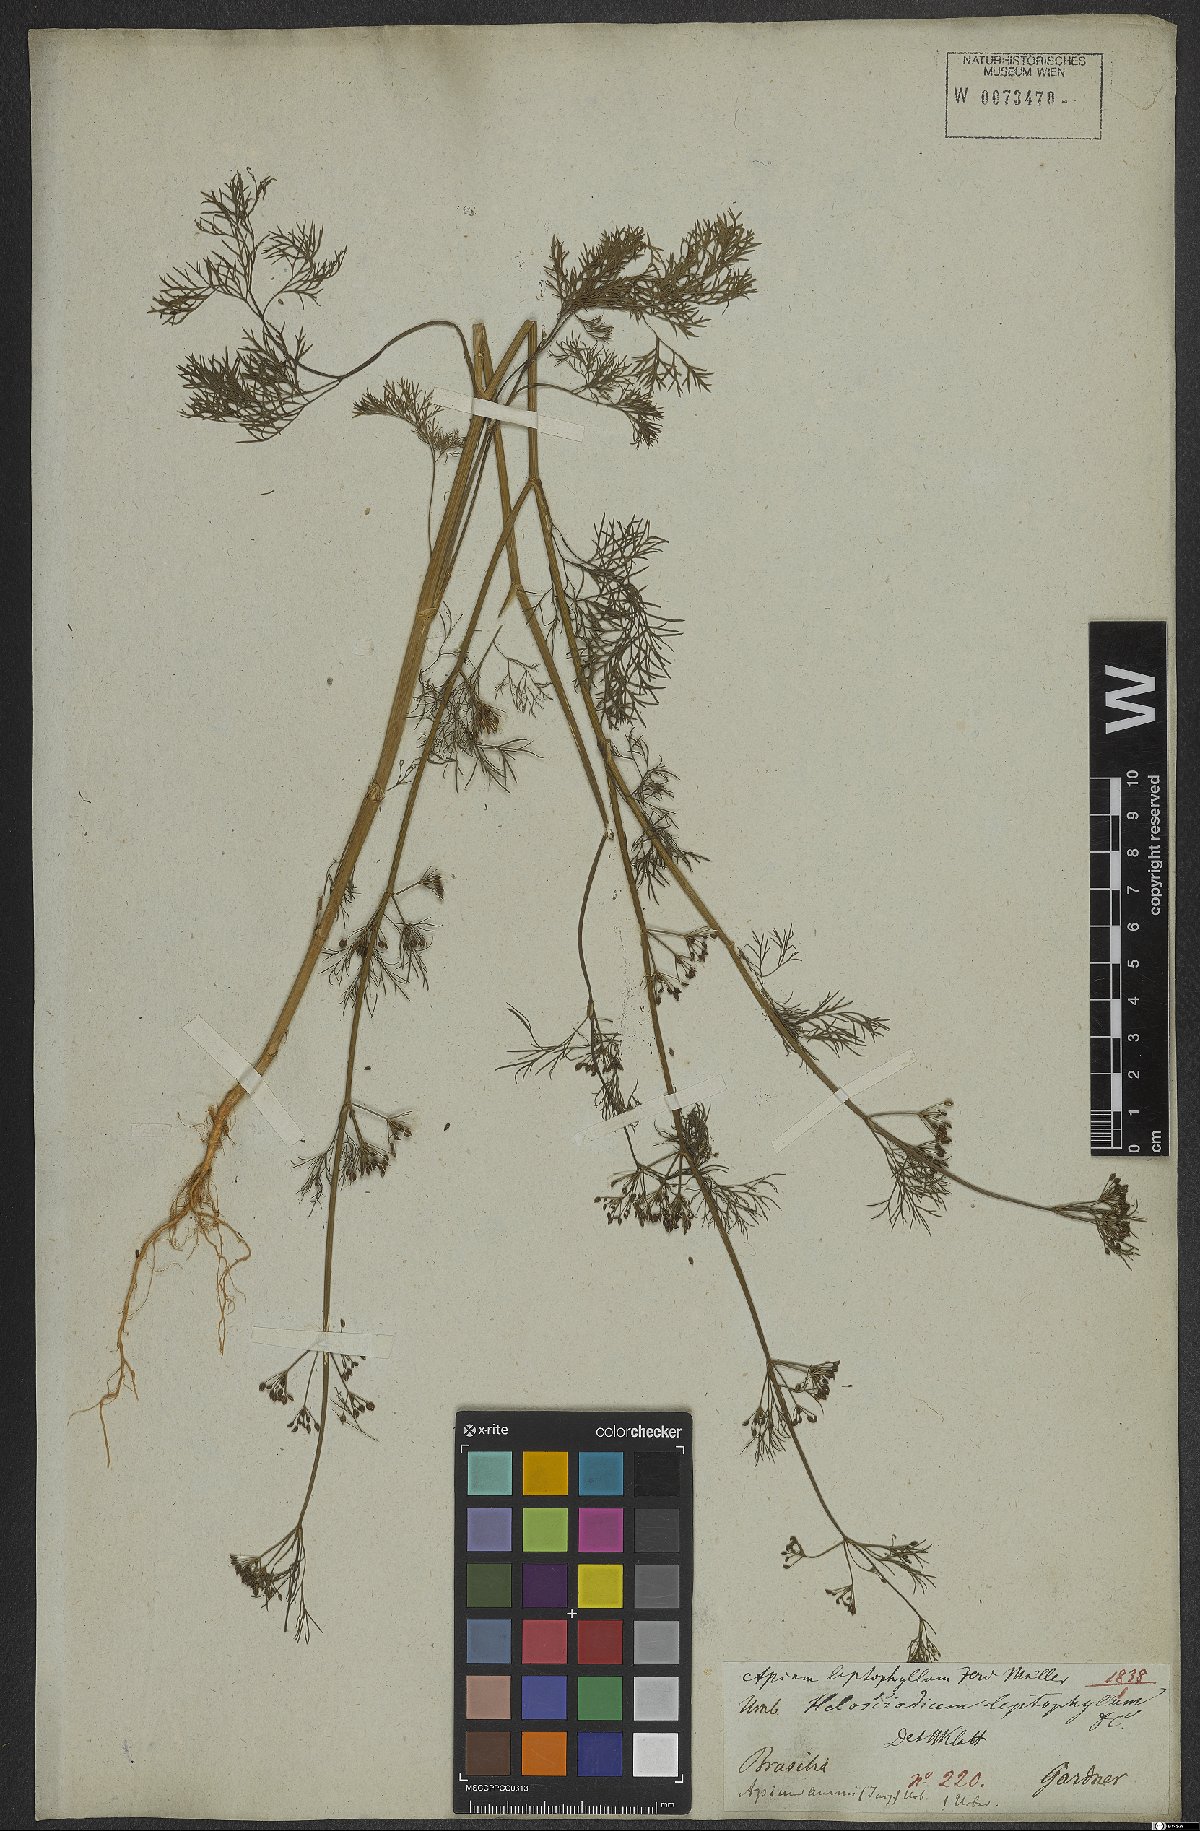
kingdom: Plantae
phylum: Tracheophyta
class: Magnoliopsida
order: Apiales
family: Apiaceae
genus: Cyclospermum
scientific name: Cyclospermum leptophyllum
